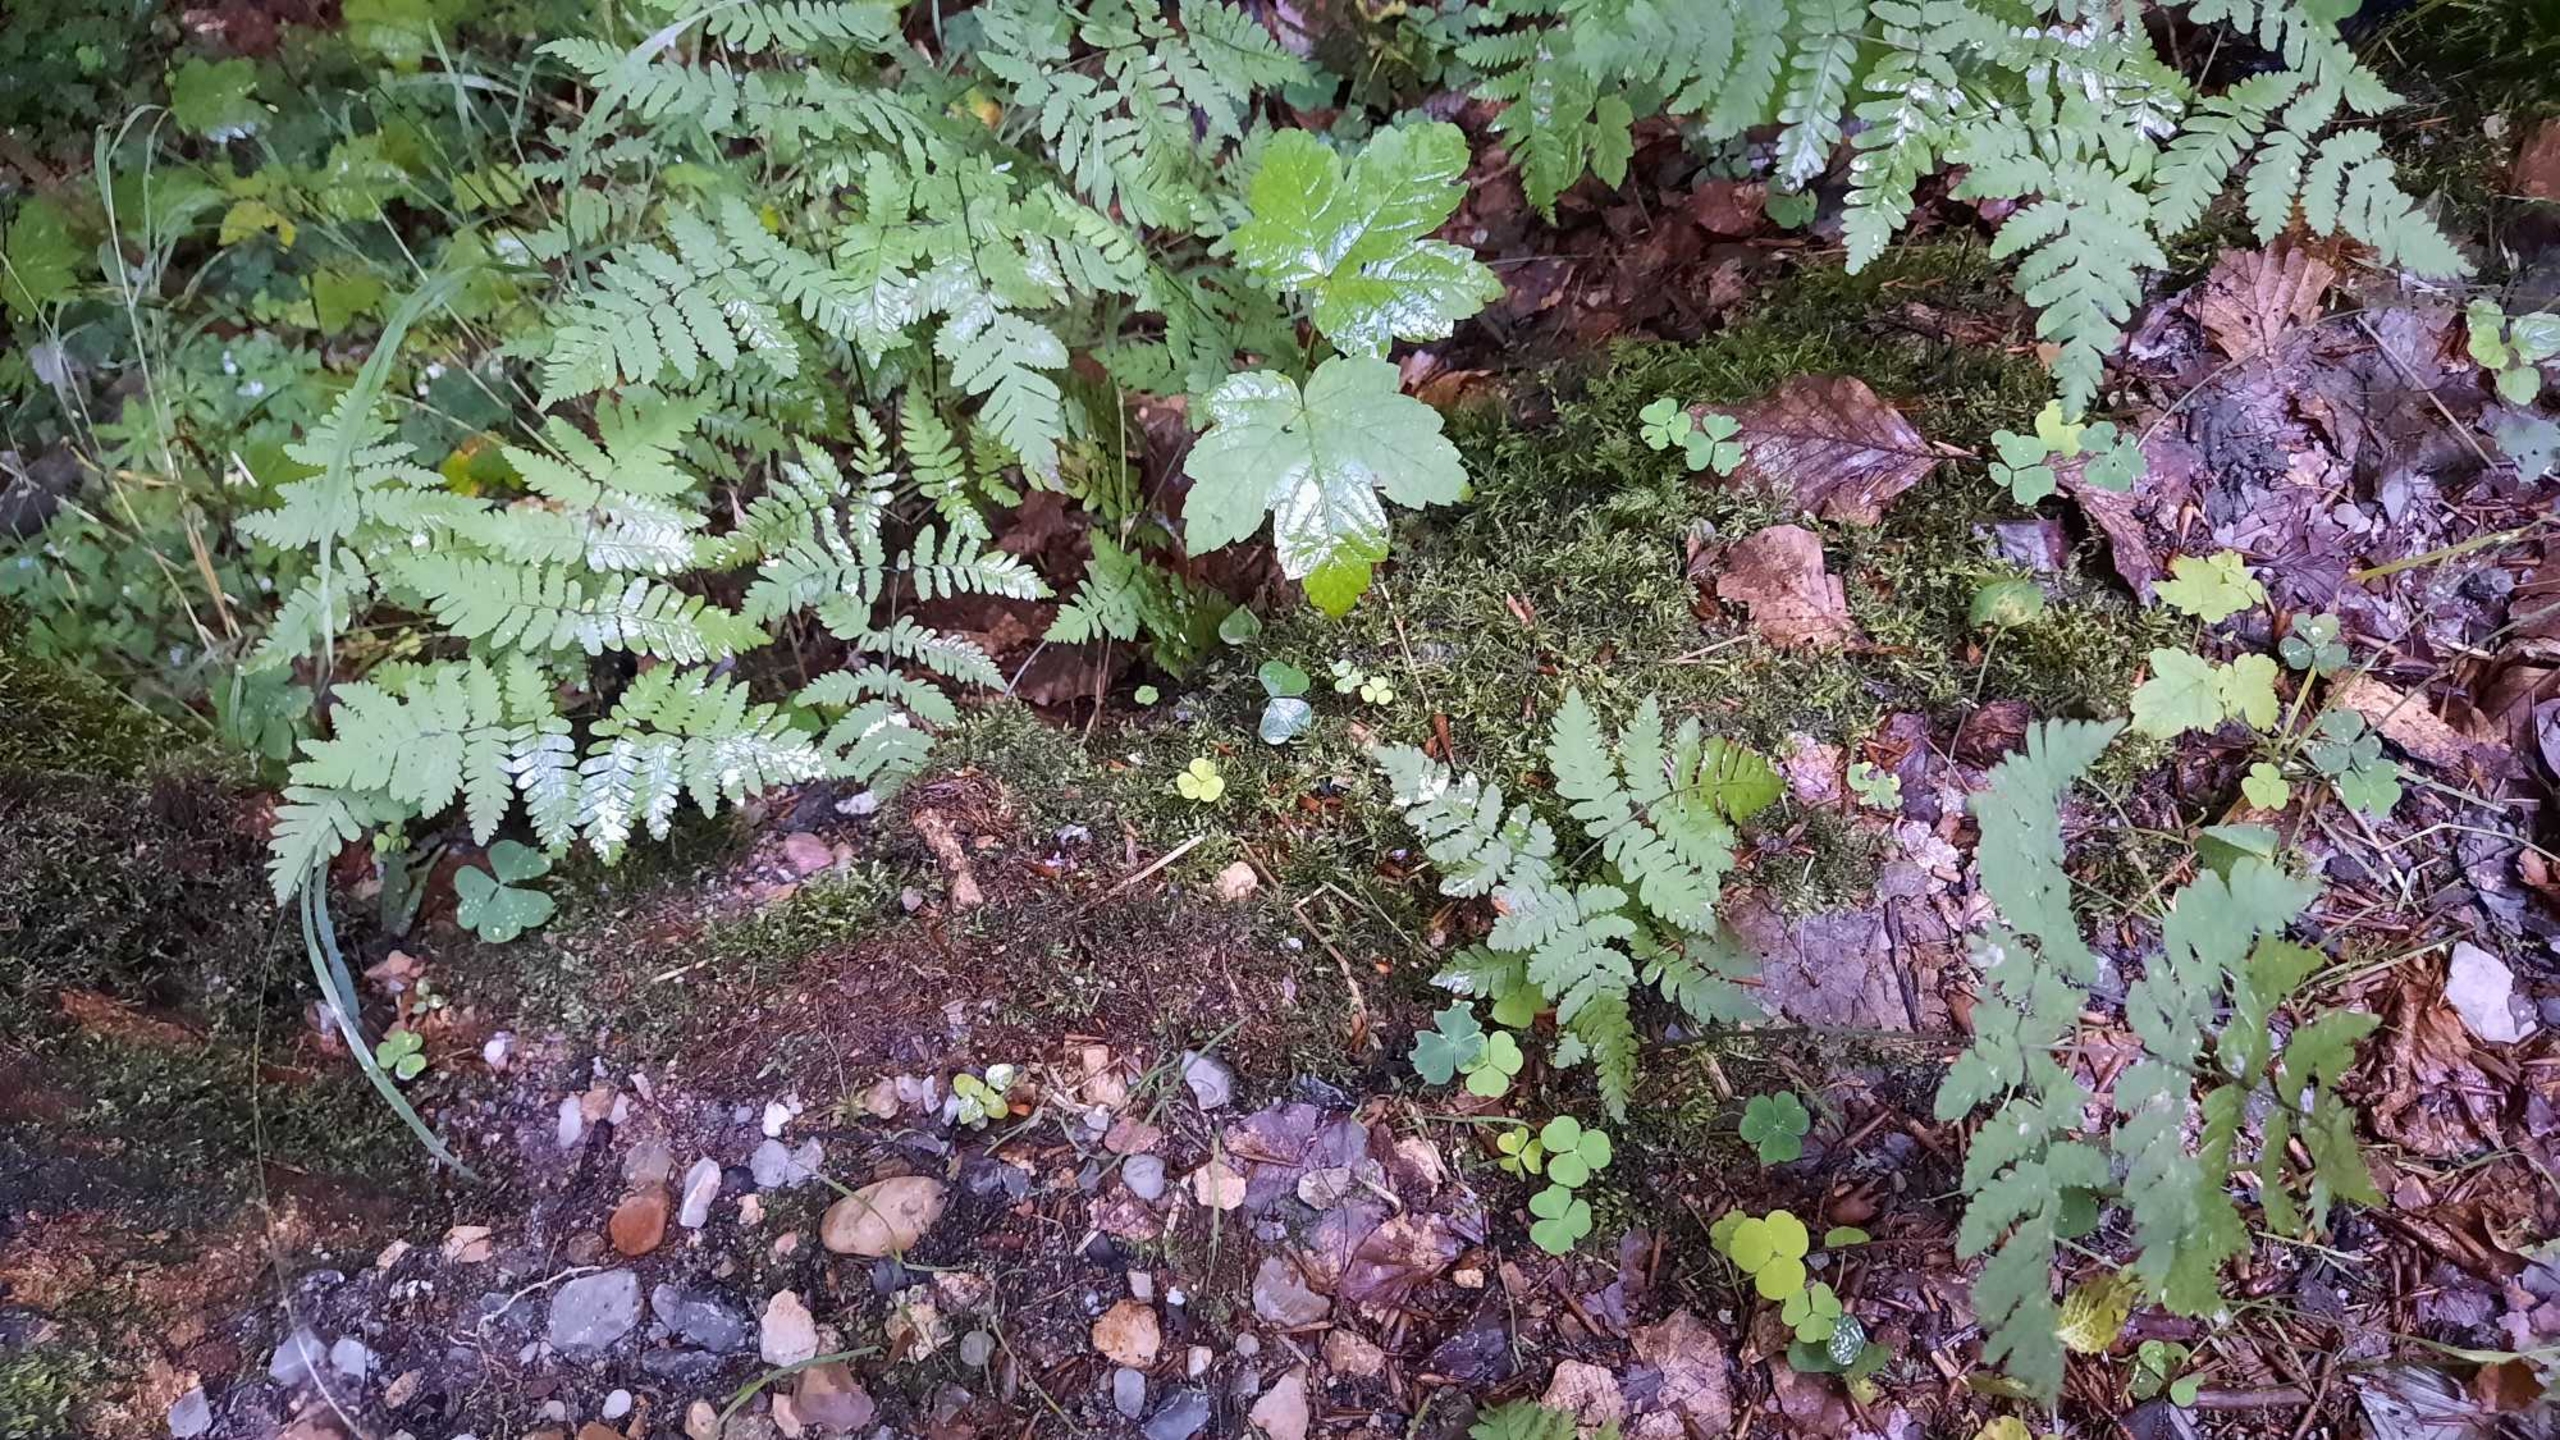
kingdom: Plantae
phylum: Tracheophyta
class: Polypodiopsida
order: Polypodiales
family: Cystopteridaceae
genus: Gymnocarpium
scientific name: Gymnocarpium dryopteris
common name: Tredelt egebregne
